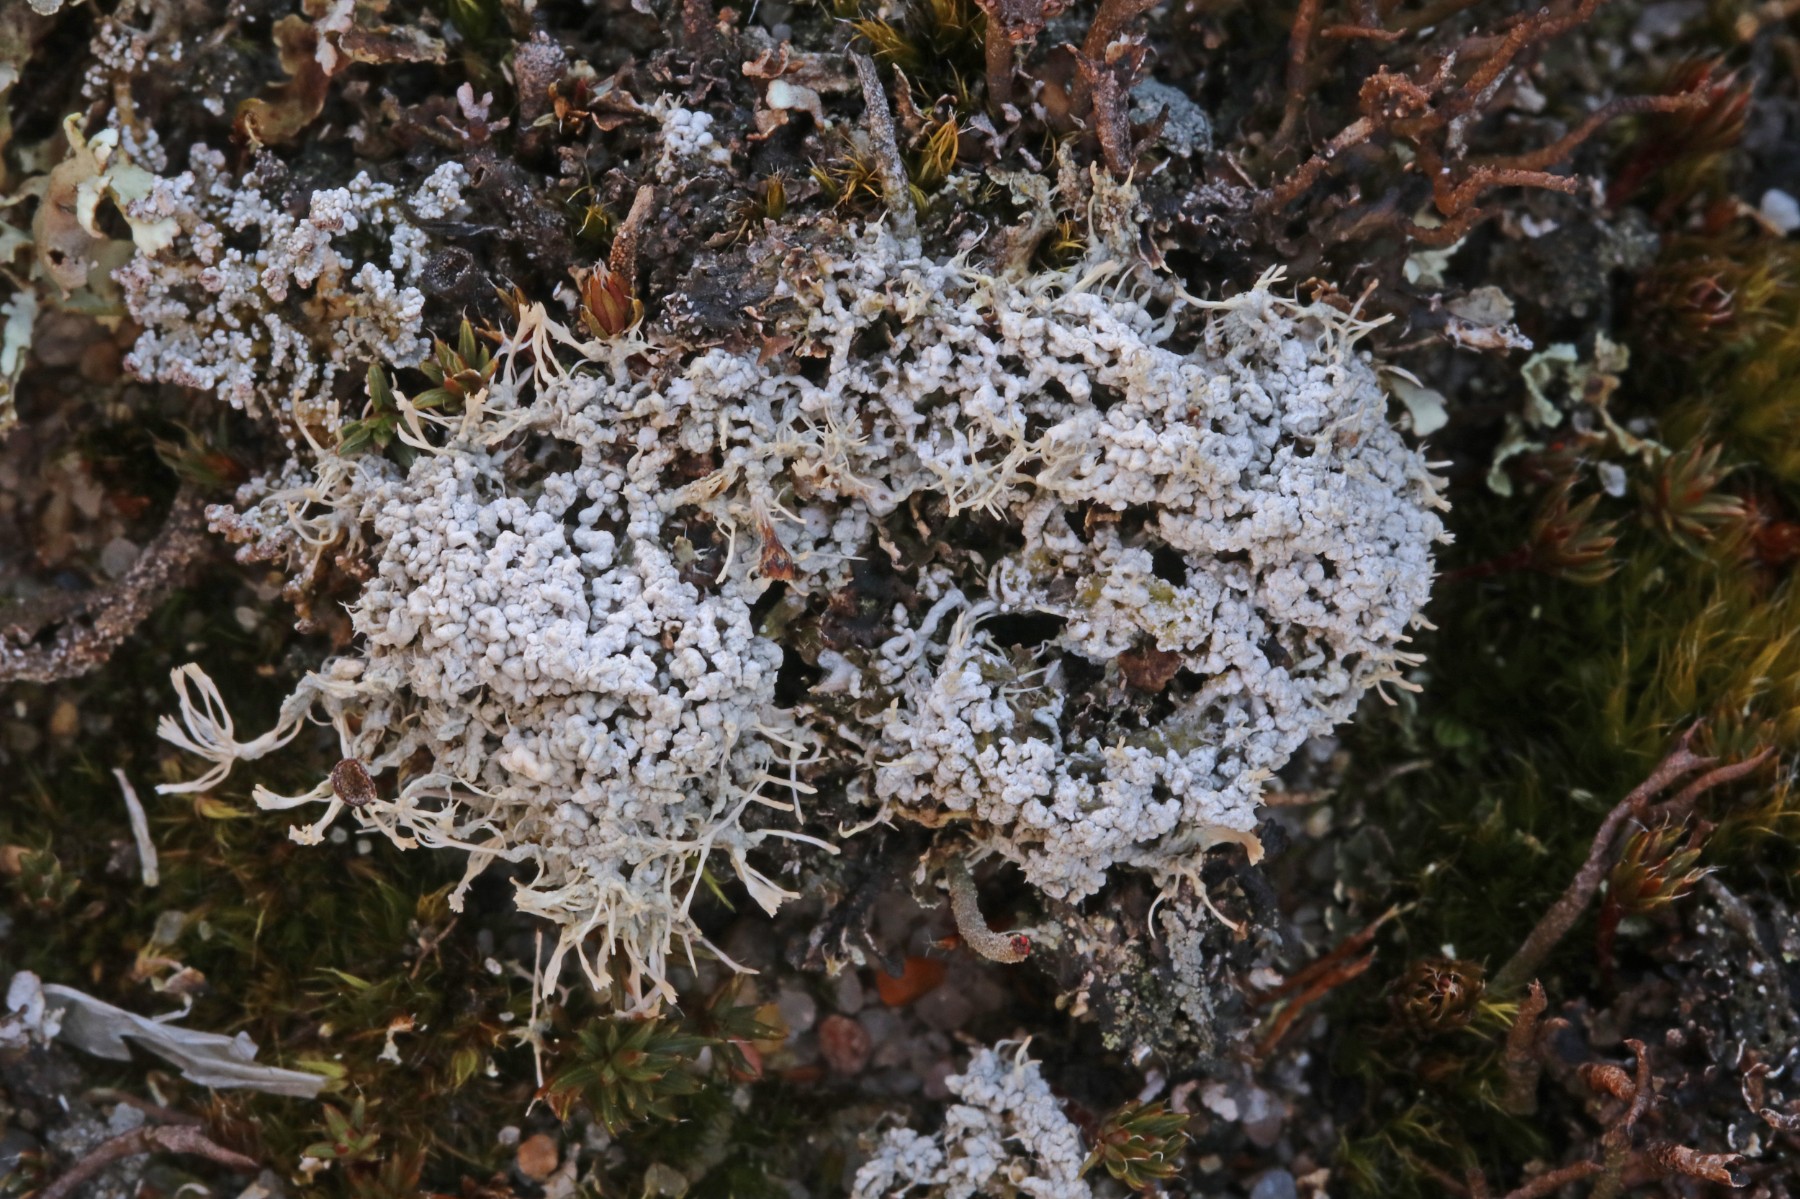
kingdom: Fungi
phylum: Ascomycota
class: Lecanoromycetes
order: Pertusariales
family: Ochrolechiaceae
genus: Ochrolechia
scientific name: Ochrolechia frigida
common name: fjeld-blegskivelav
